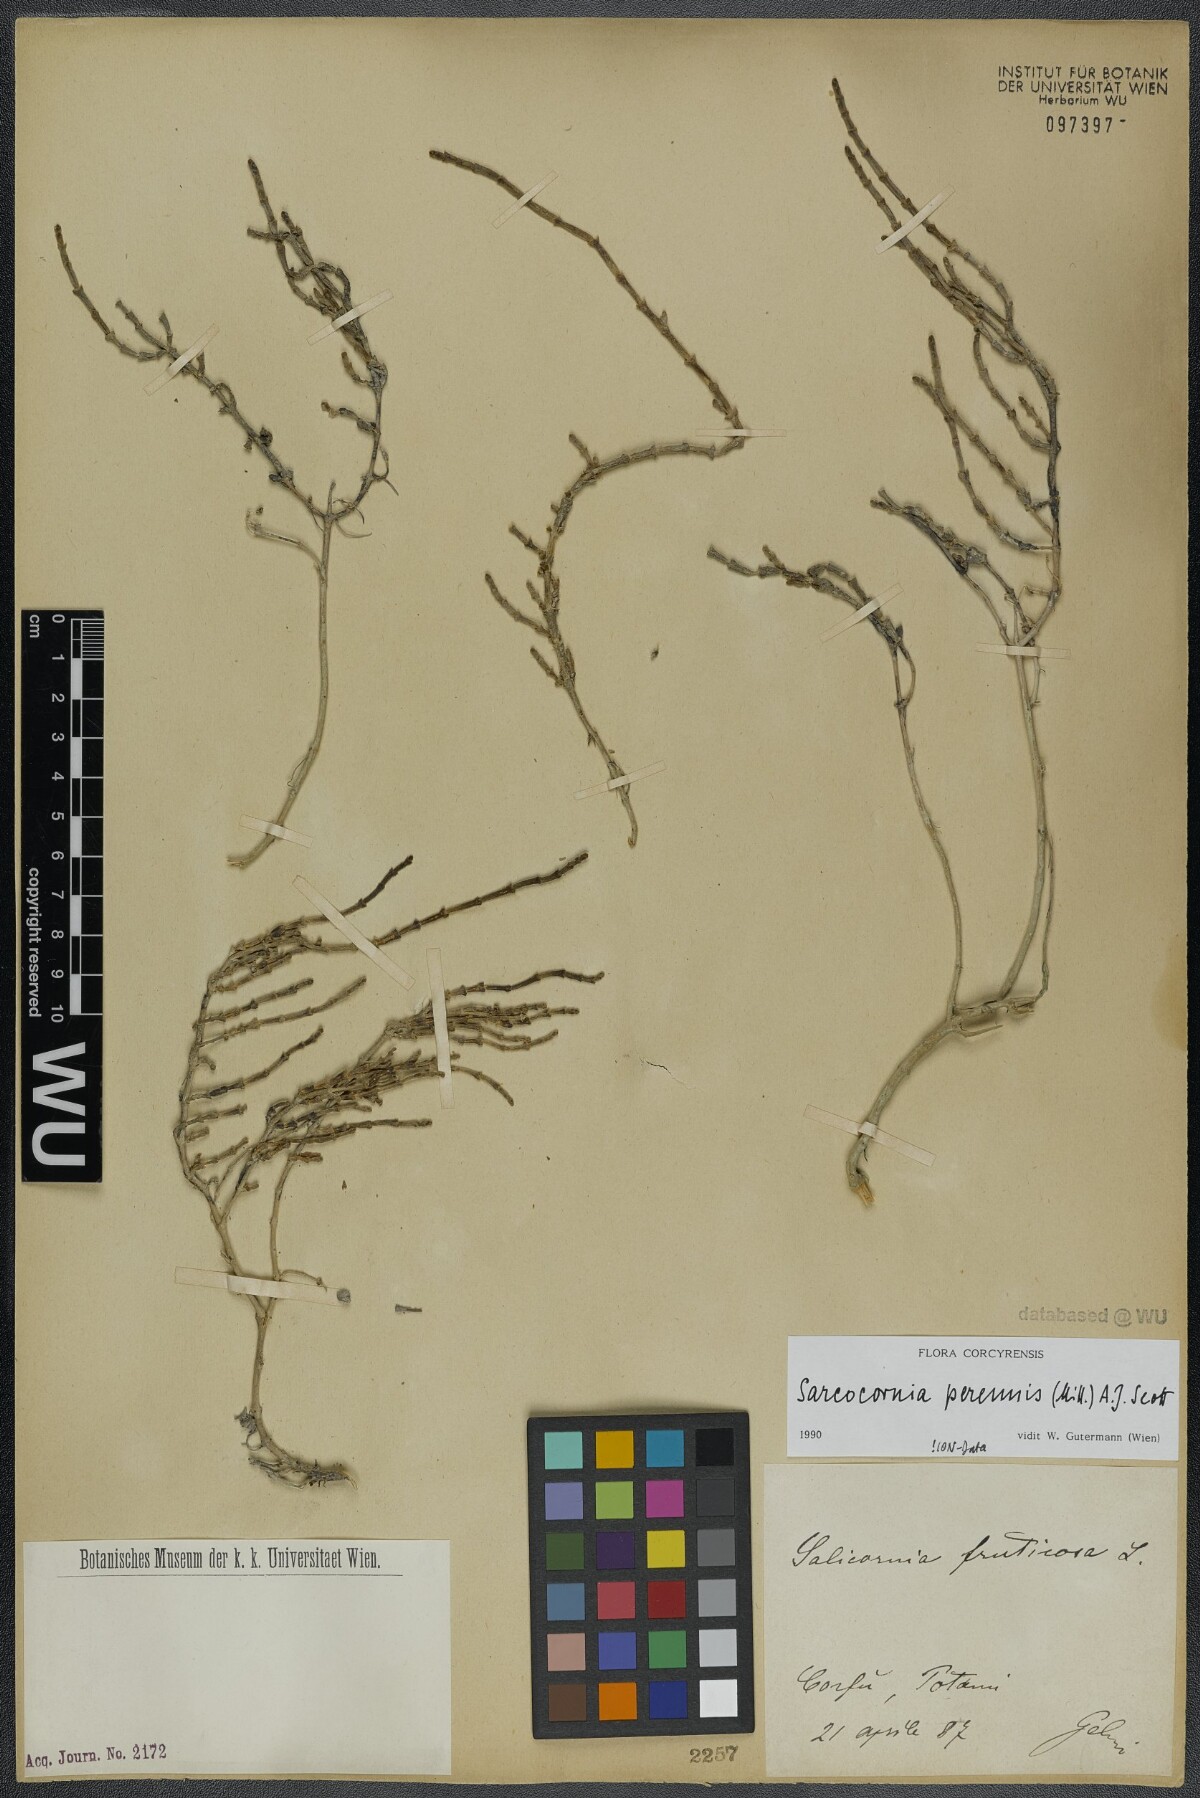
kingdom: Plantae
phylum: Tracheophyta
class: Magnoliopsida
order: Caryophyllales
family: Amaranthaceae
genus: Salicornia
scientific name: Salicornia perennis
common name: Chicken claws
